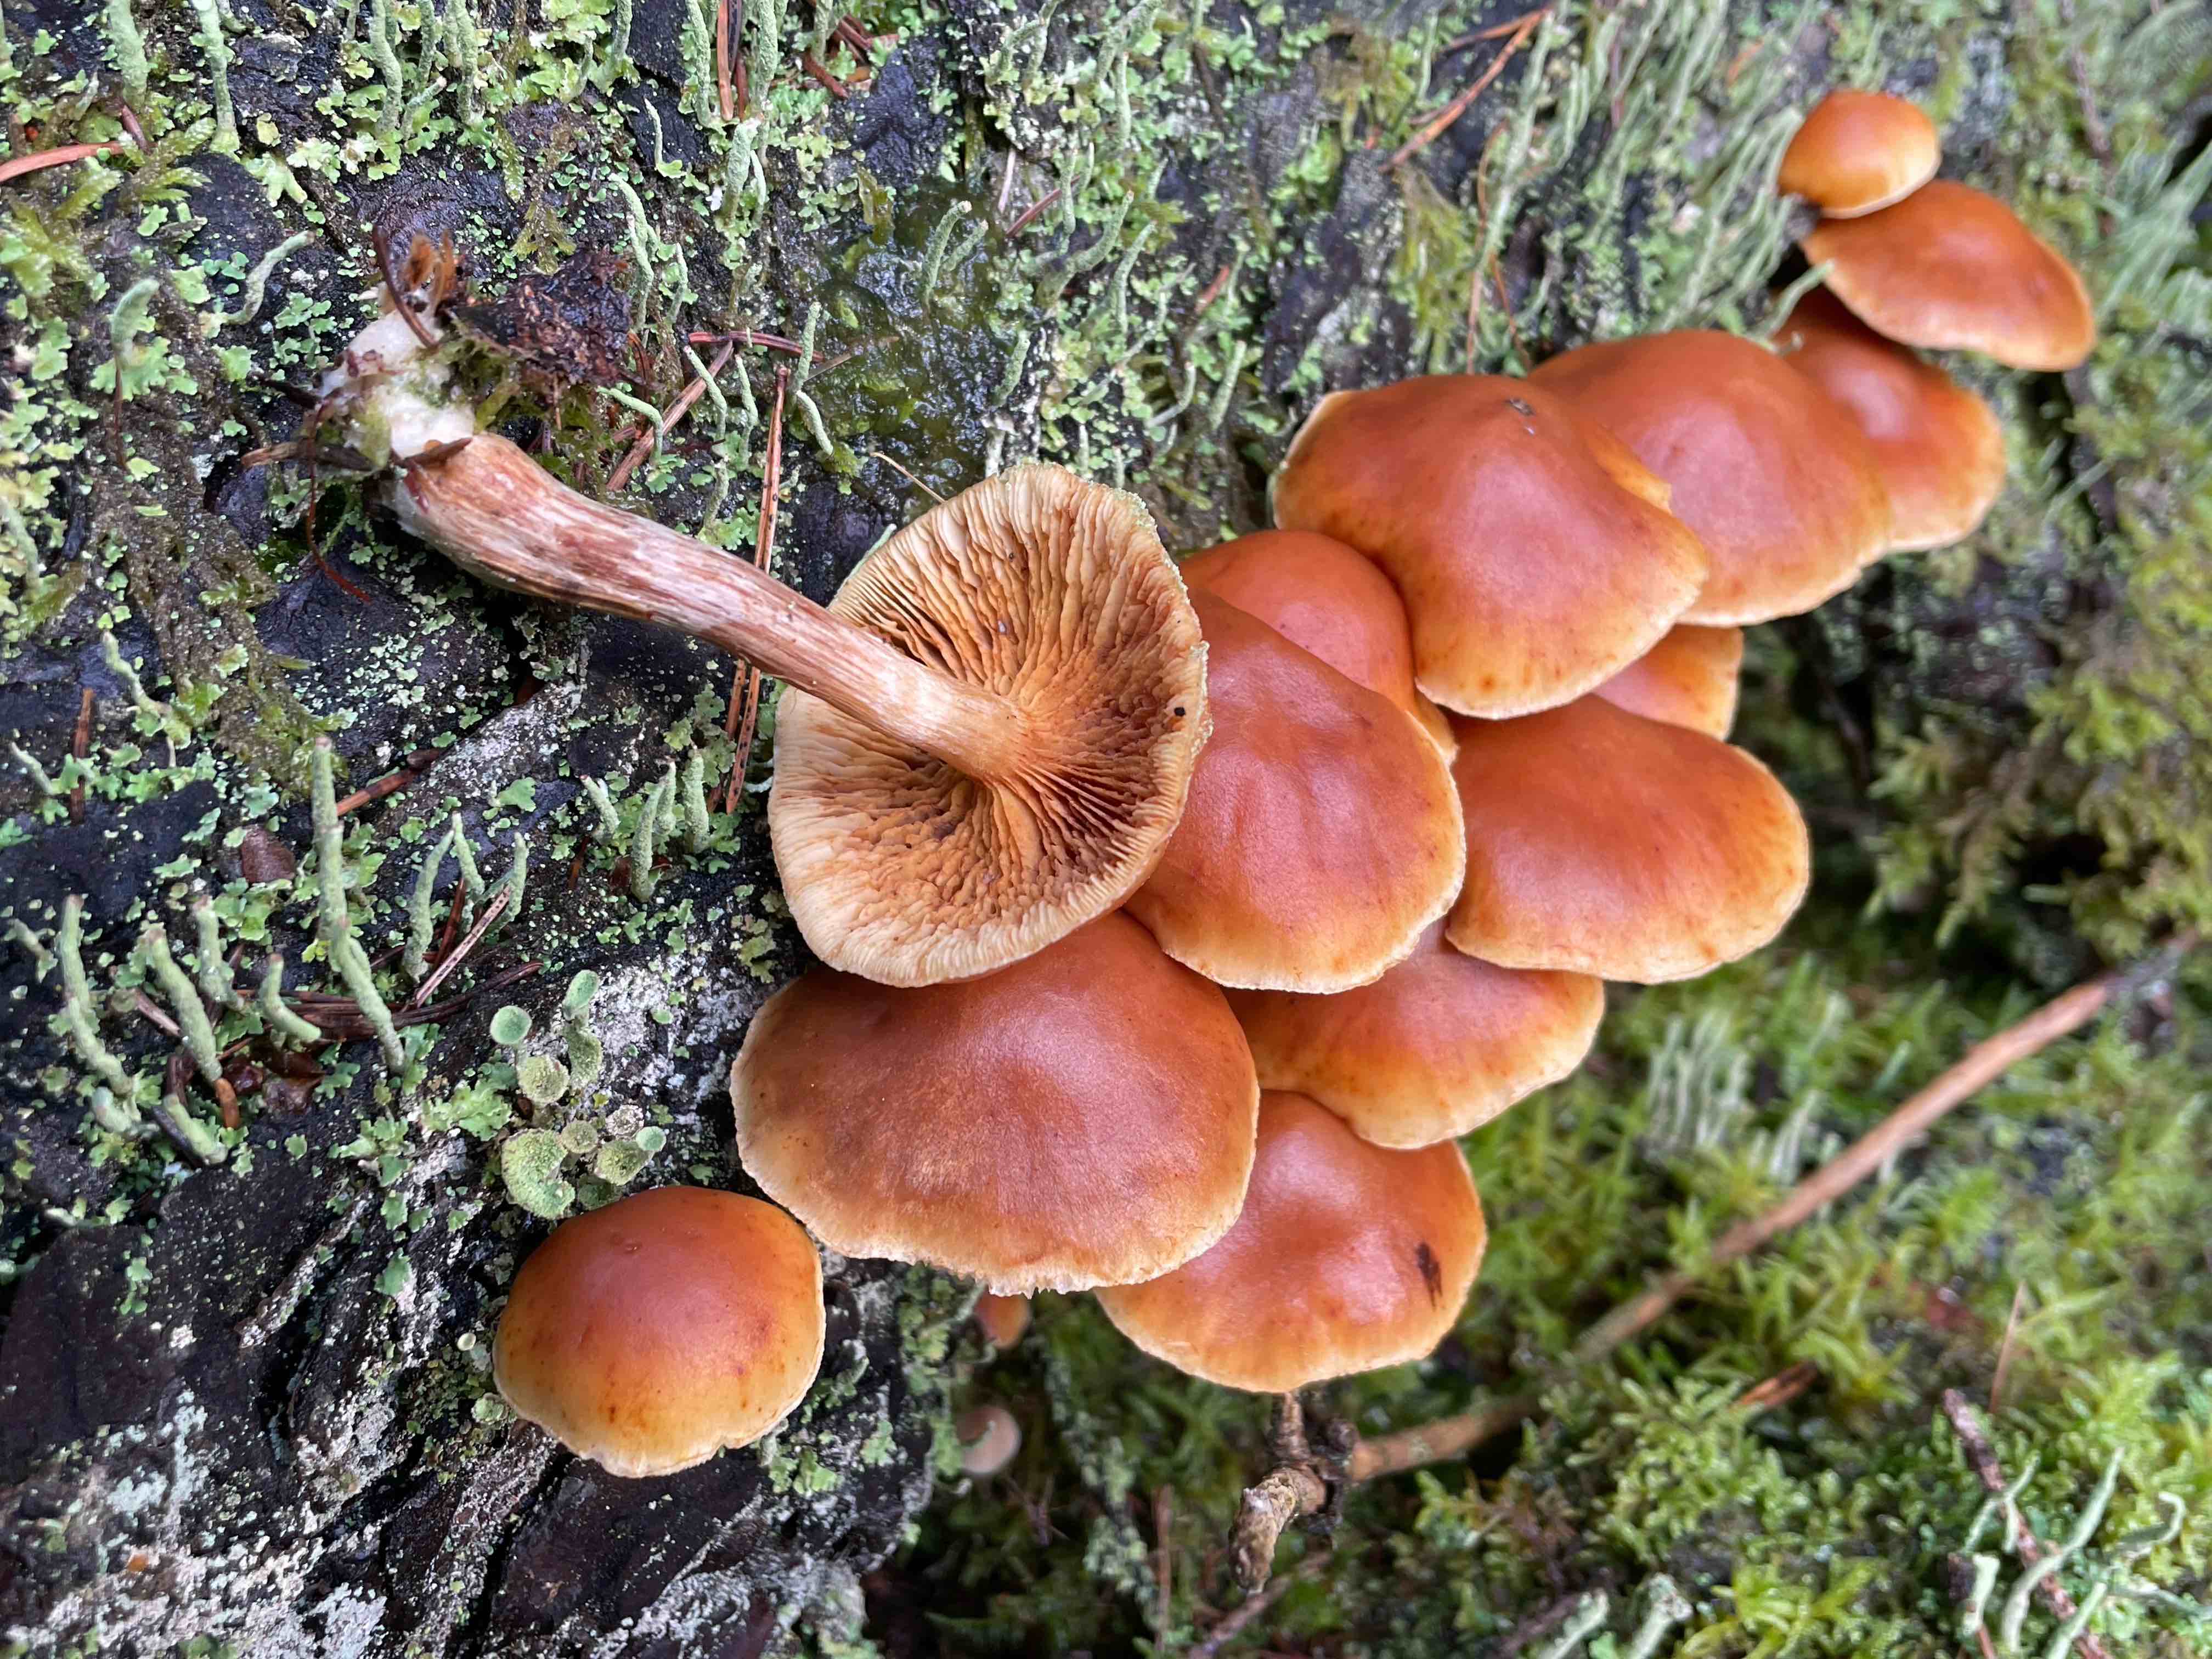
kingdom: Fungi
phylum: Basidiomycota
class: Agaricomycetes
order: Agaricales
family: Hymenogastraceae
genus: Gymnopilus
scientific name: Gymnopilus penetrans
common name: plettet flammehat
